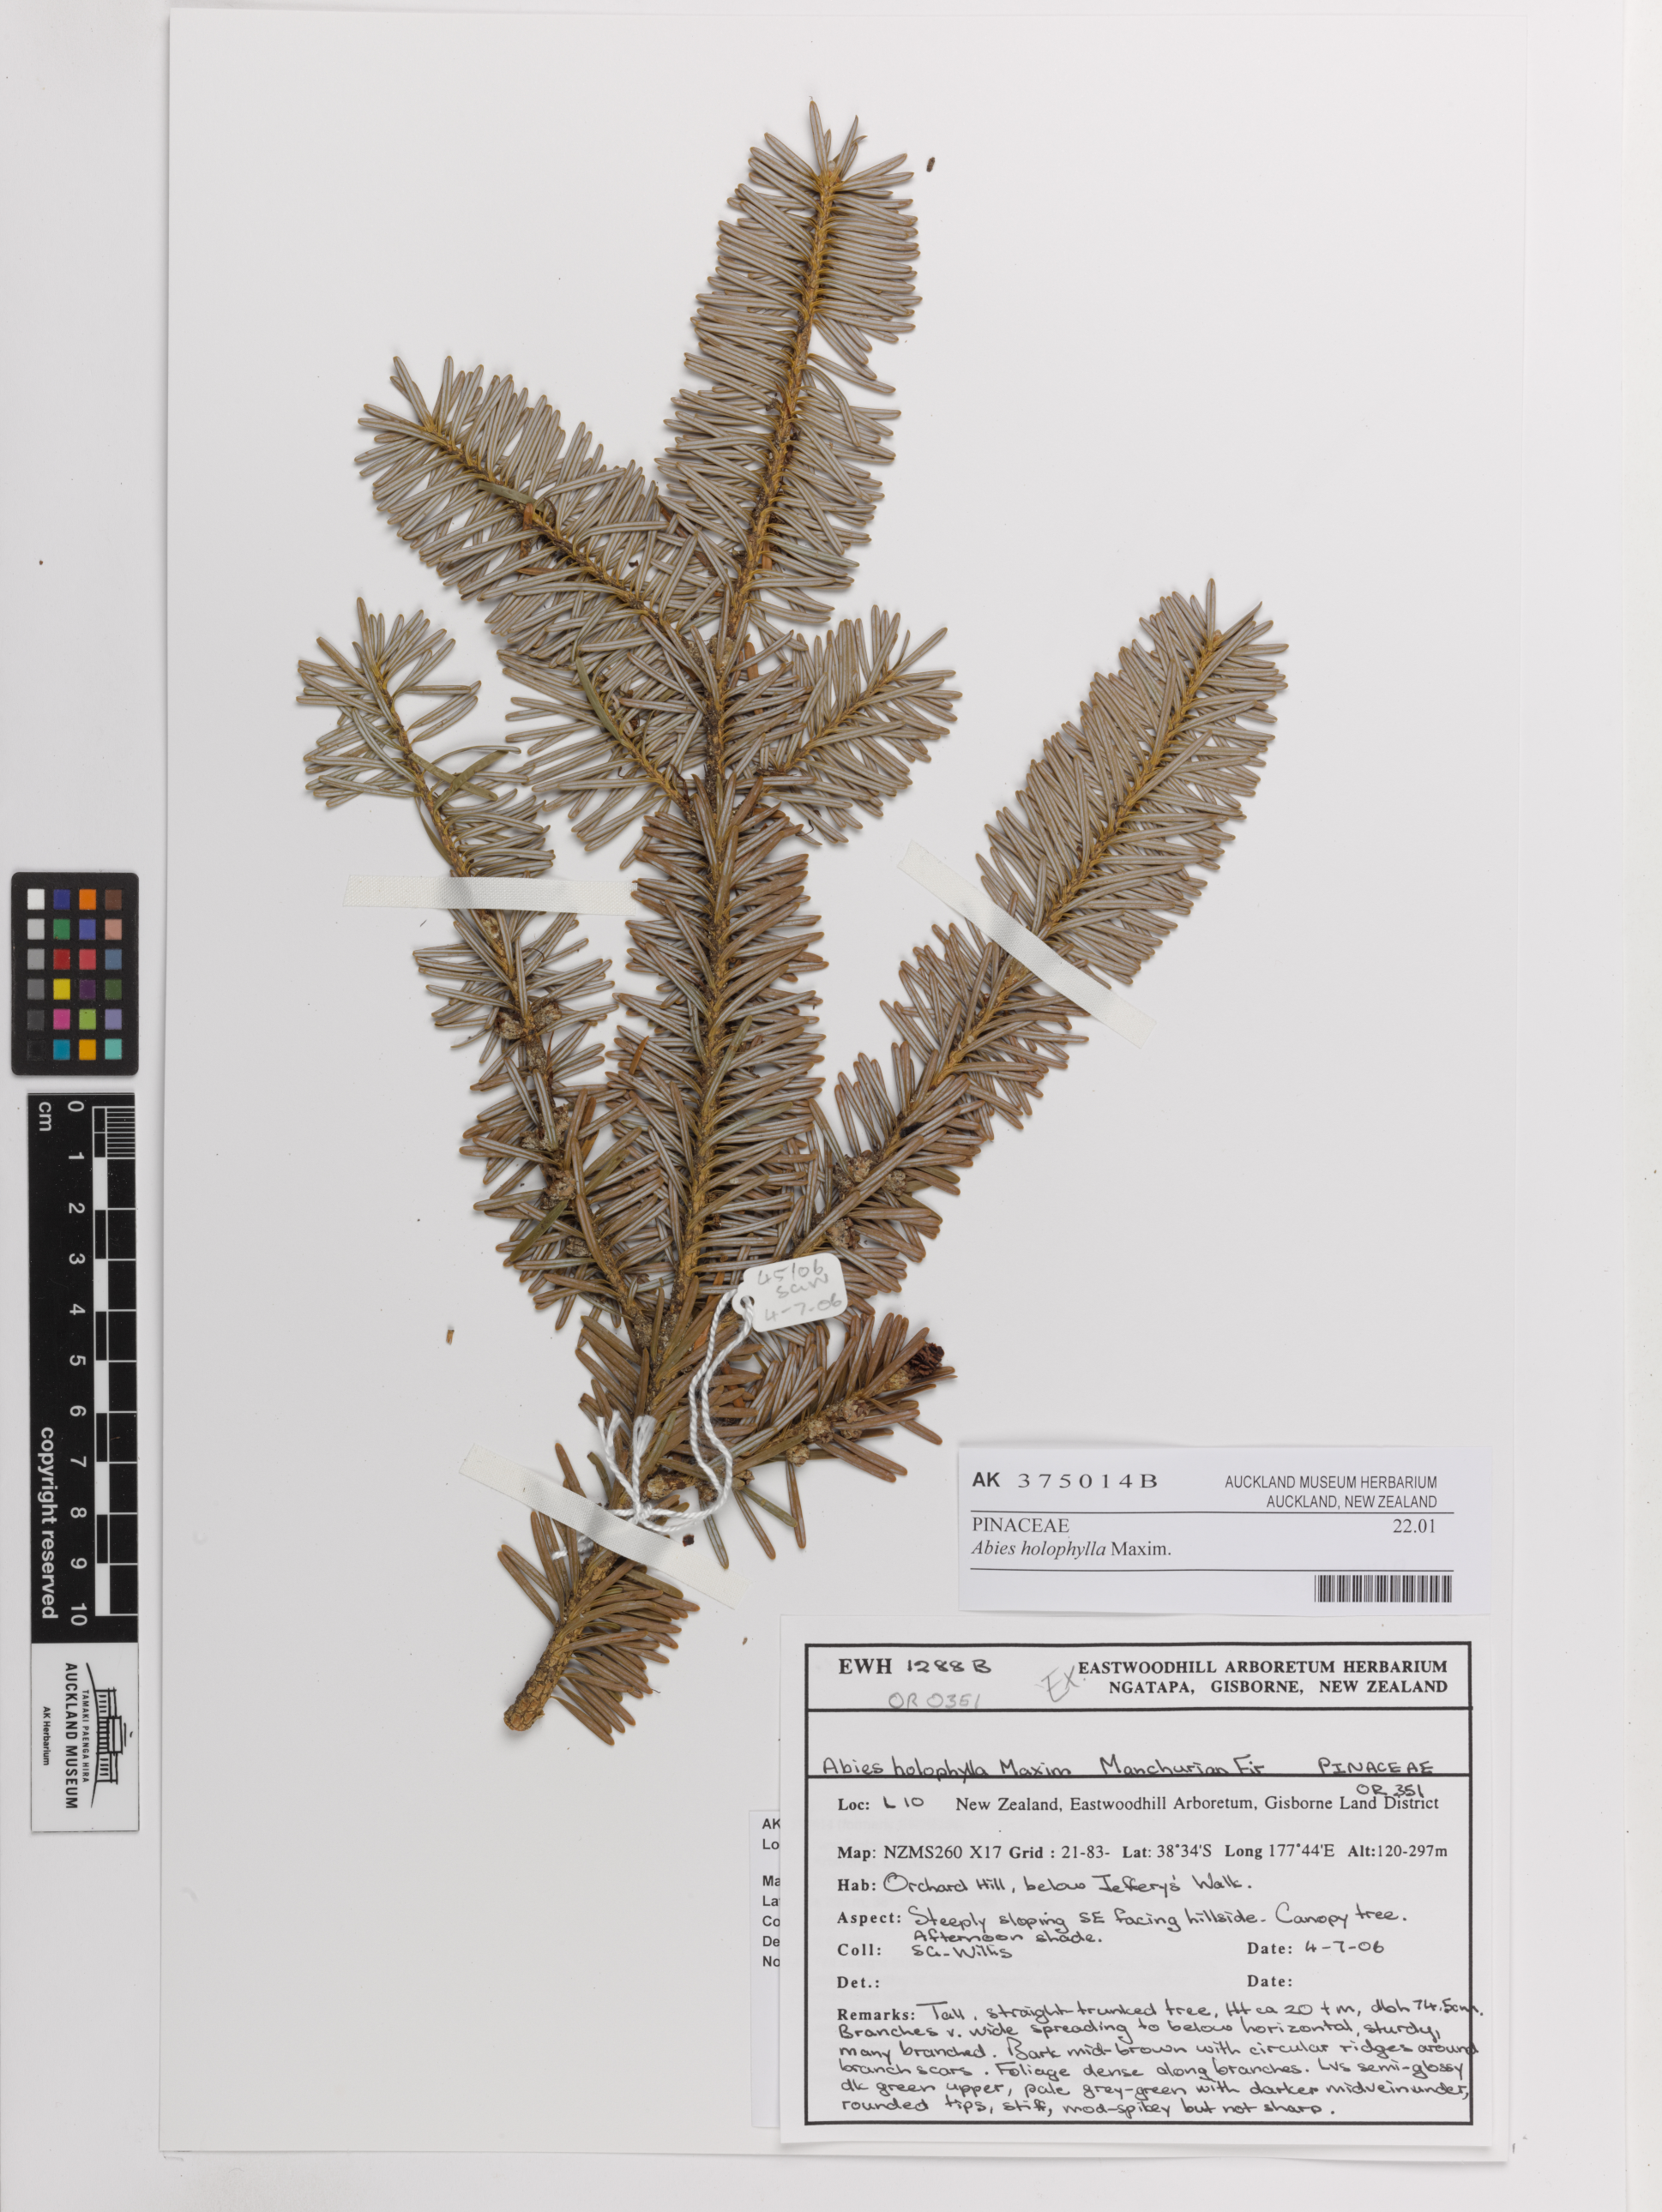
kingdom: Plantae
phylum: Tracheophyta
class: Pinopsida
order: Pinales
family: Pinaceae
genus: Abies
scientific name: Abies holophylla
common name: Manchurian fir
